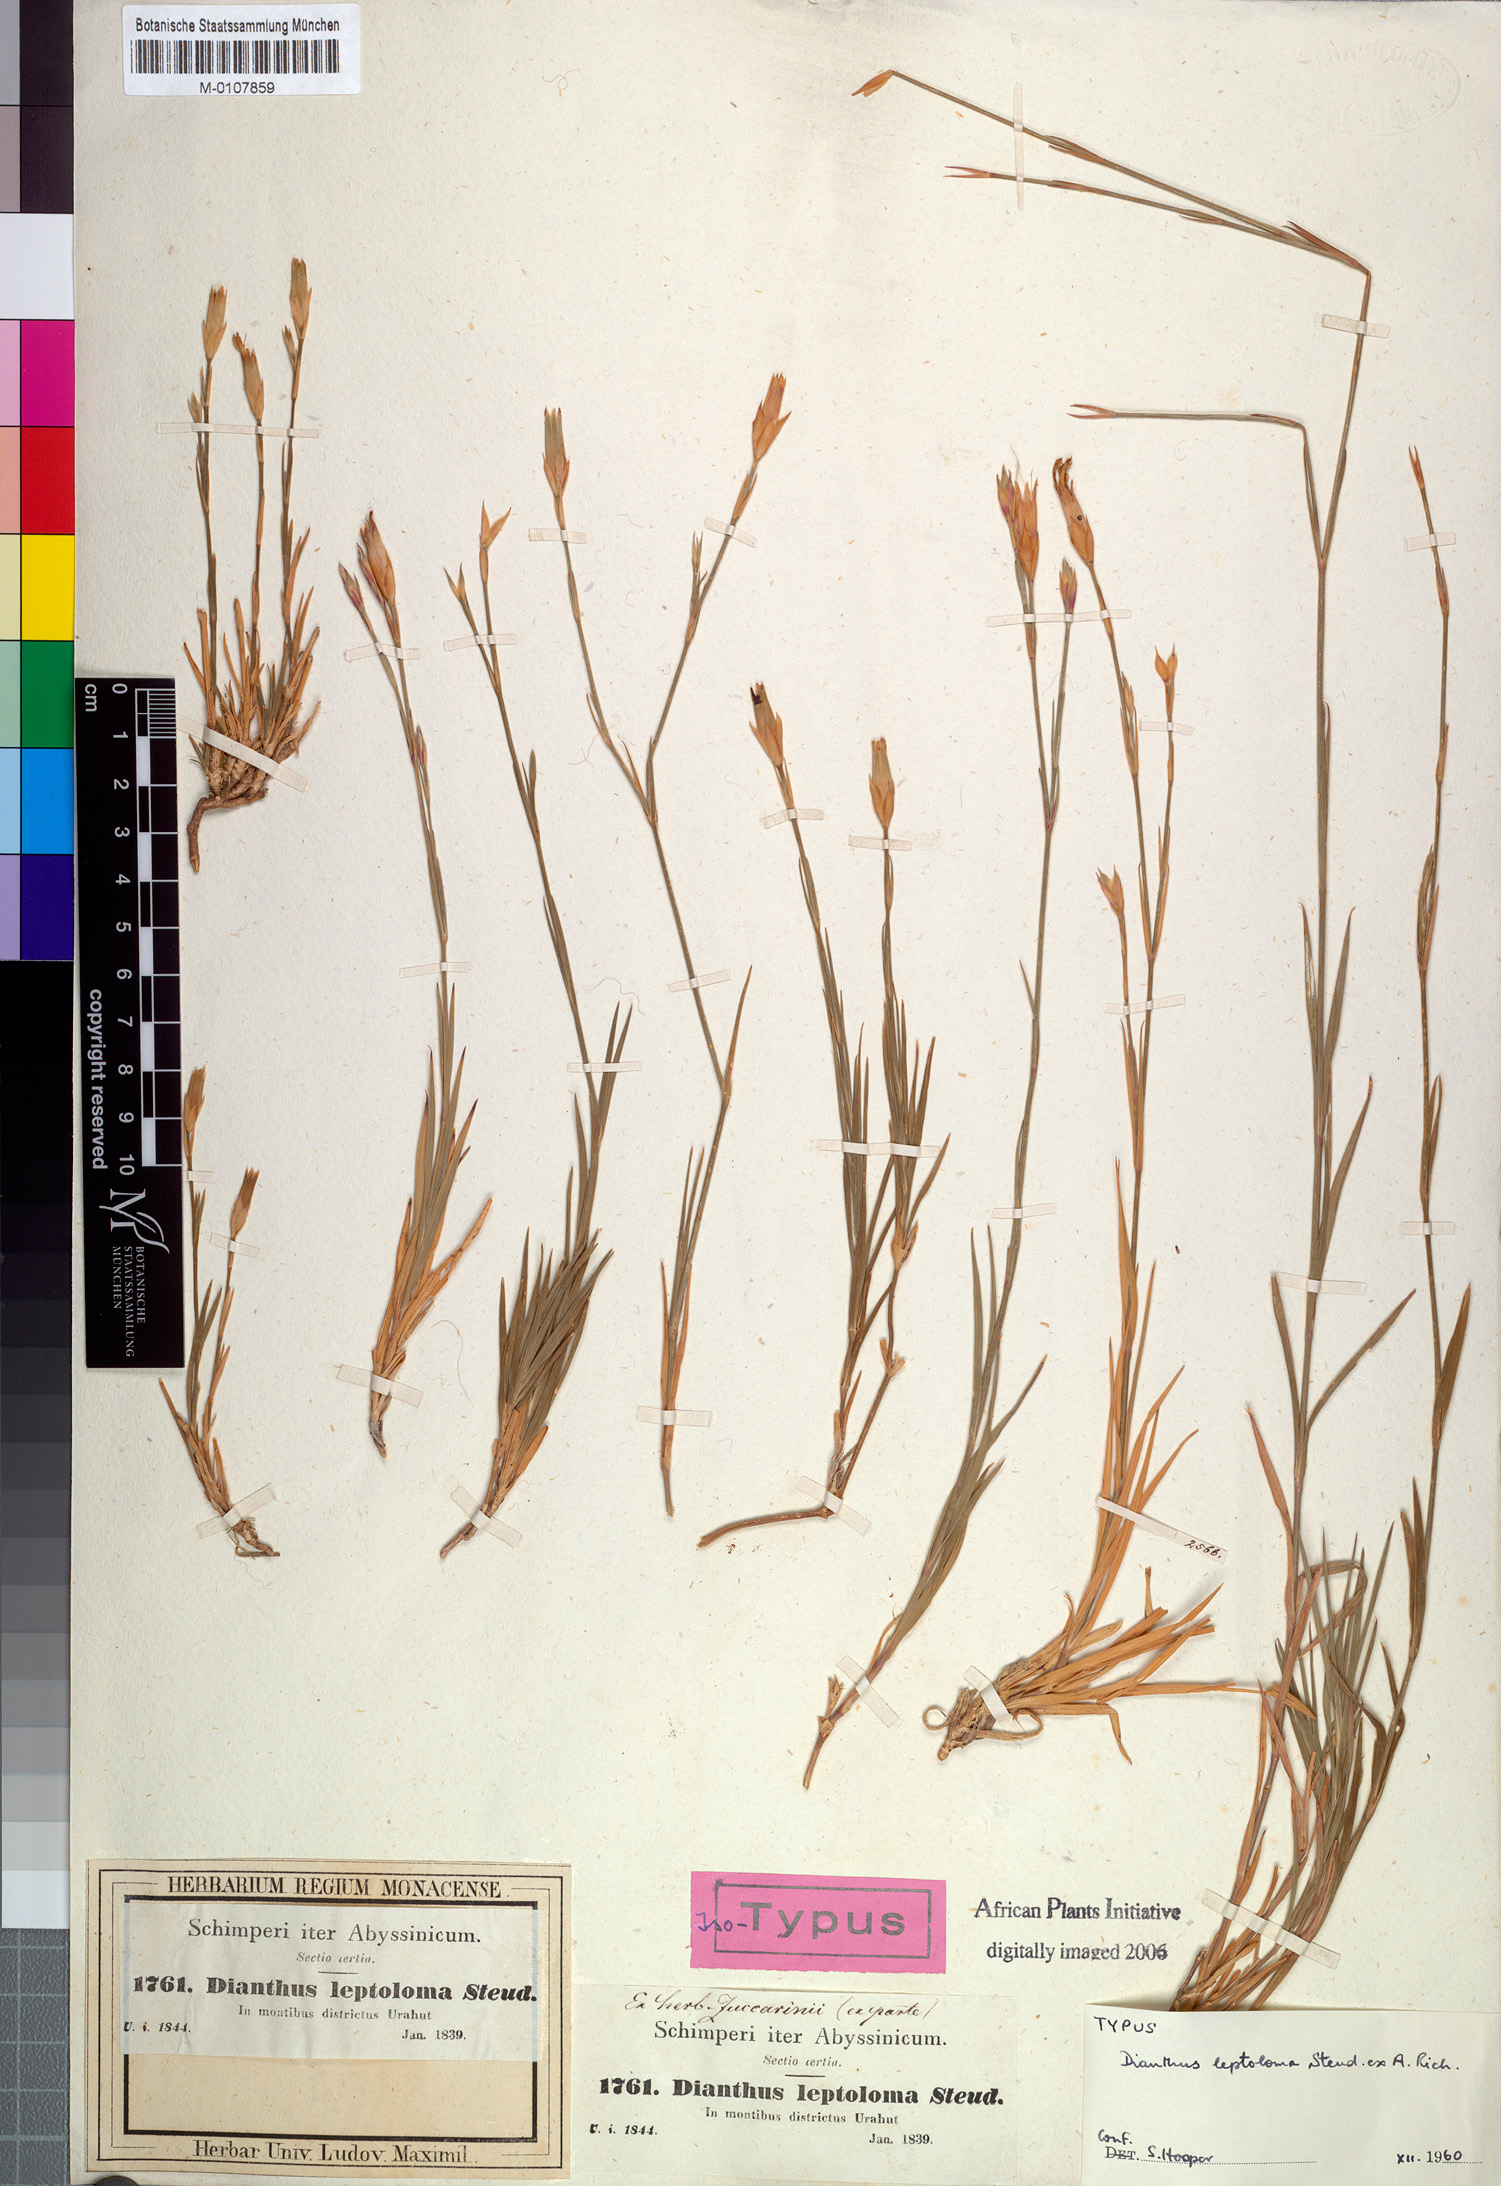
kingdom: Plantae
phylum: Tracheophyta
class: Magnoliopsida
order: Caryophyllales
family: Caryophyllaceae
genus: Dianthus
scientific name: Dianthus leptoloma
